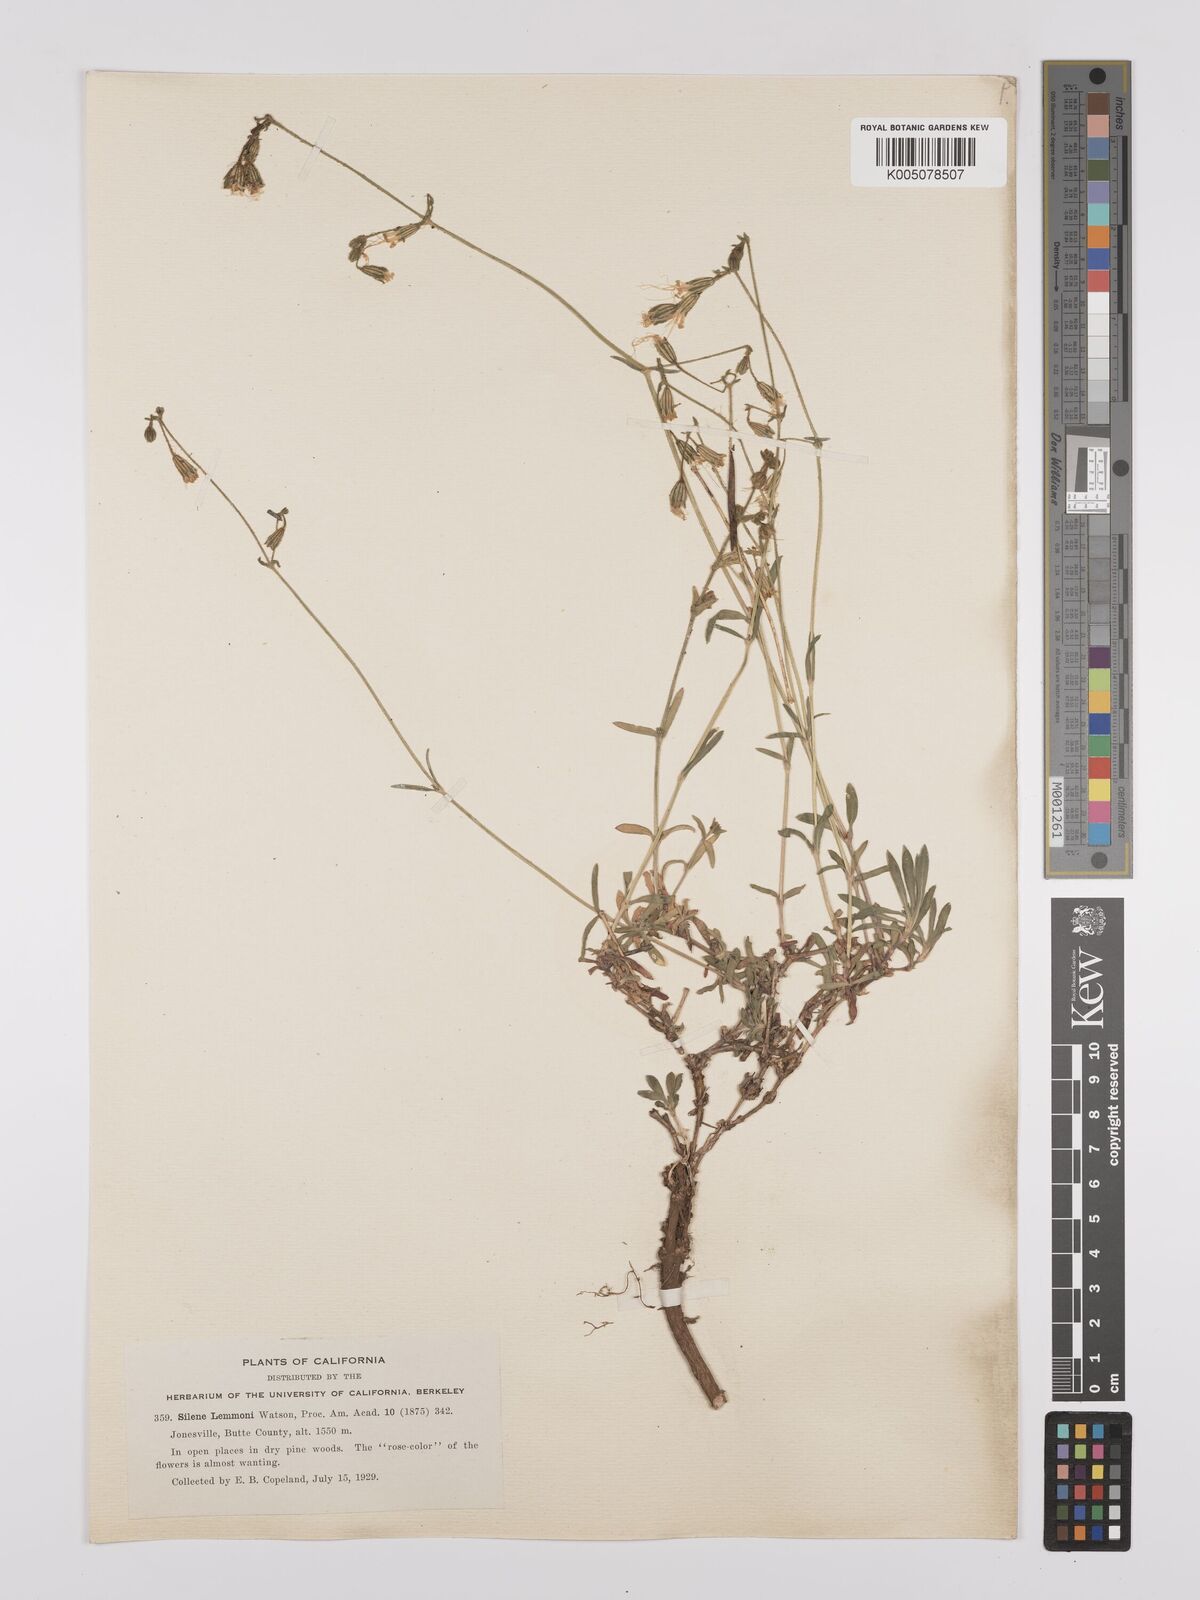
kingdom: Plantae
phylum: Tracheophyta
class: Magnoliopsida
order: Caryophyllales
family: Caryophyllaceae
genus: Silene
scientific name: Silene lemmonii
